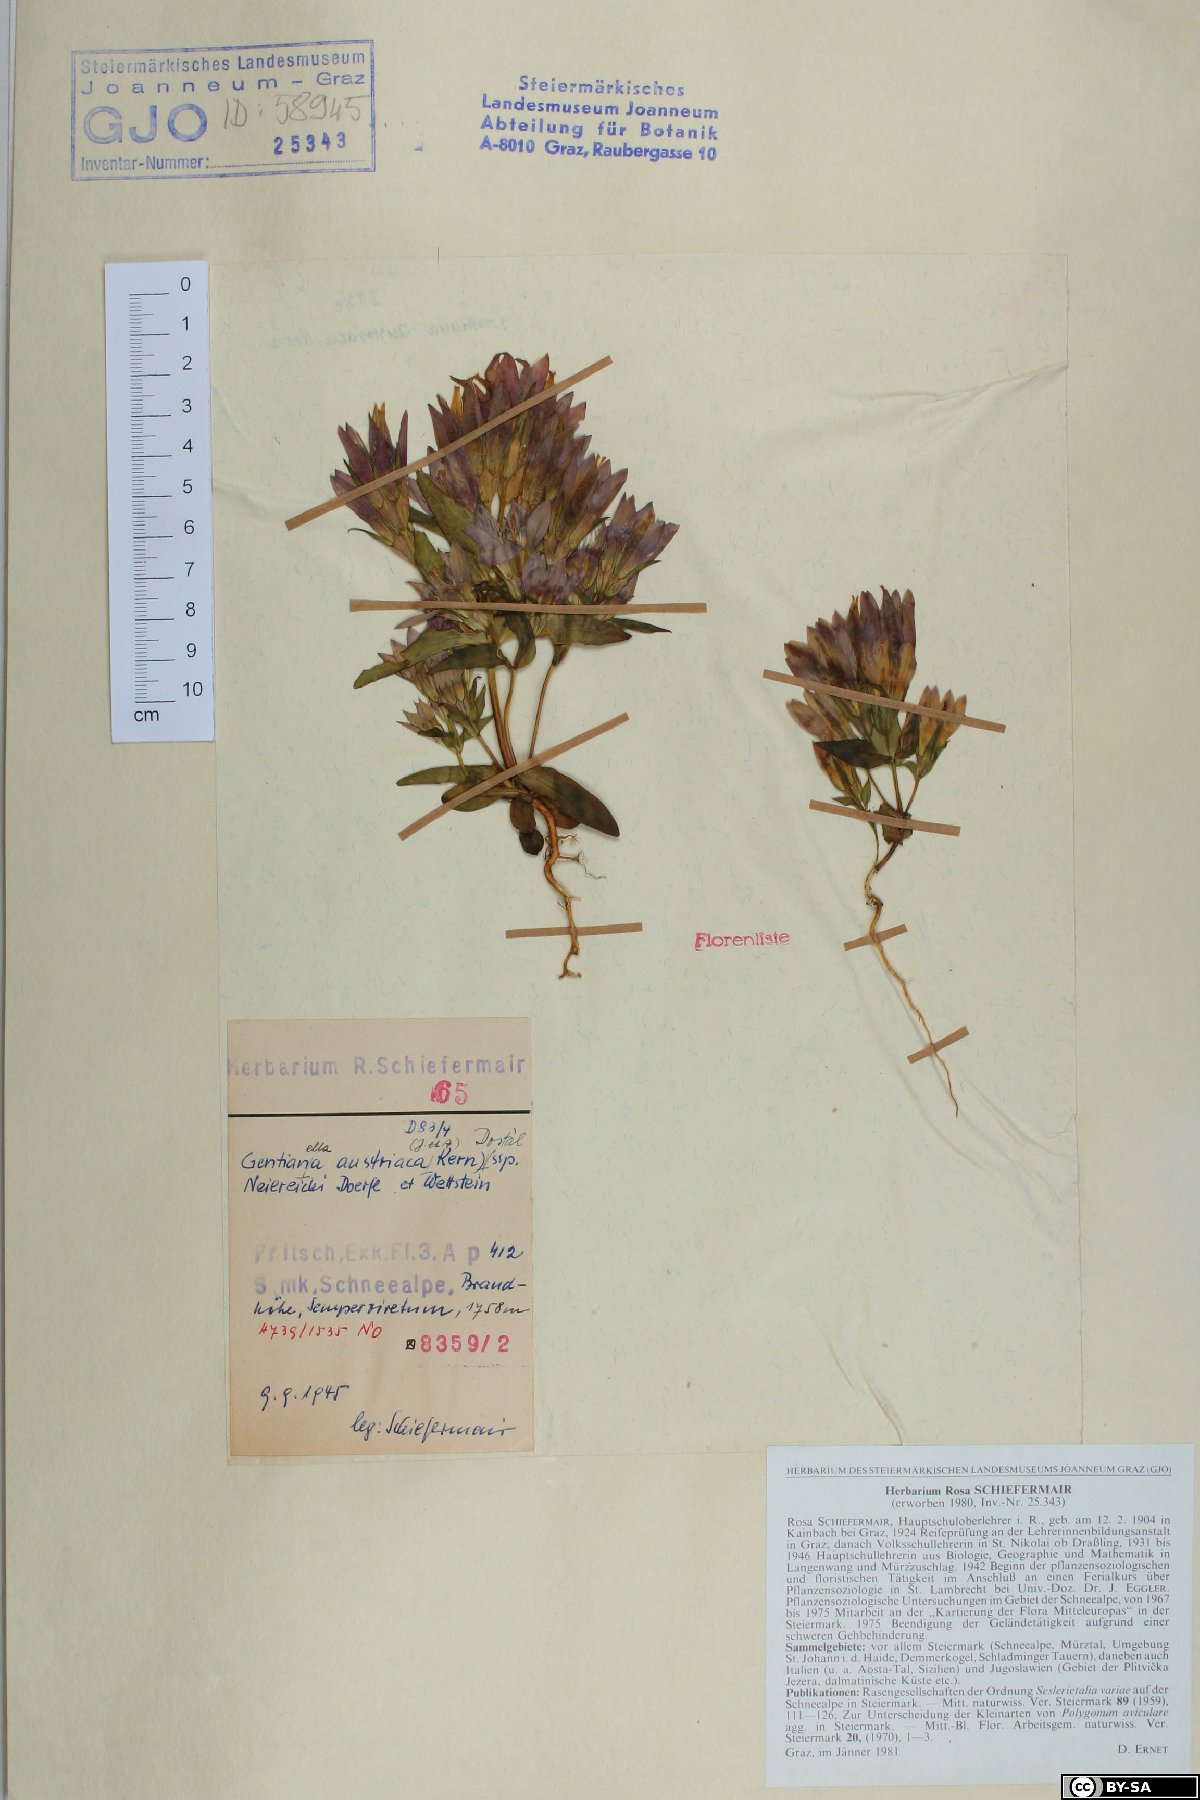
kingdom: Plantae
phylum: Tracheophyta
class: Magnoliopsida
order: Gentianales
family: Gentianaceae
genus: Gentianella
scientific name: Gentianella austriaca
